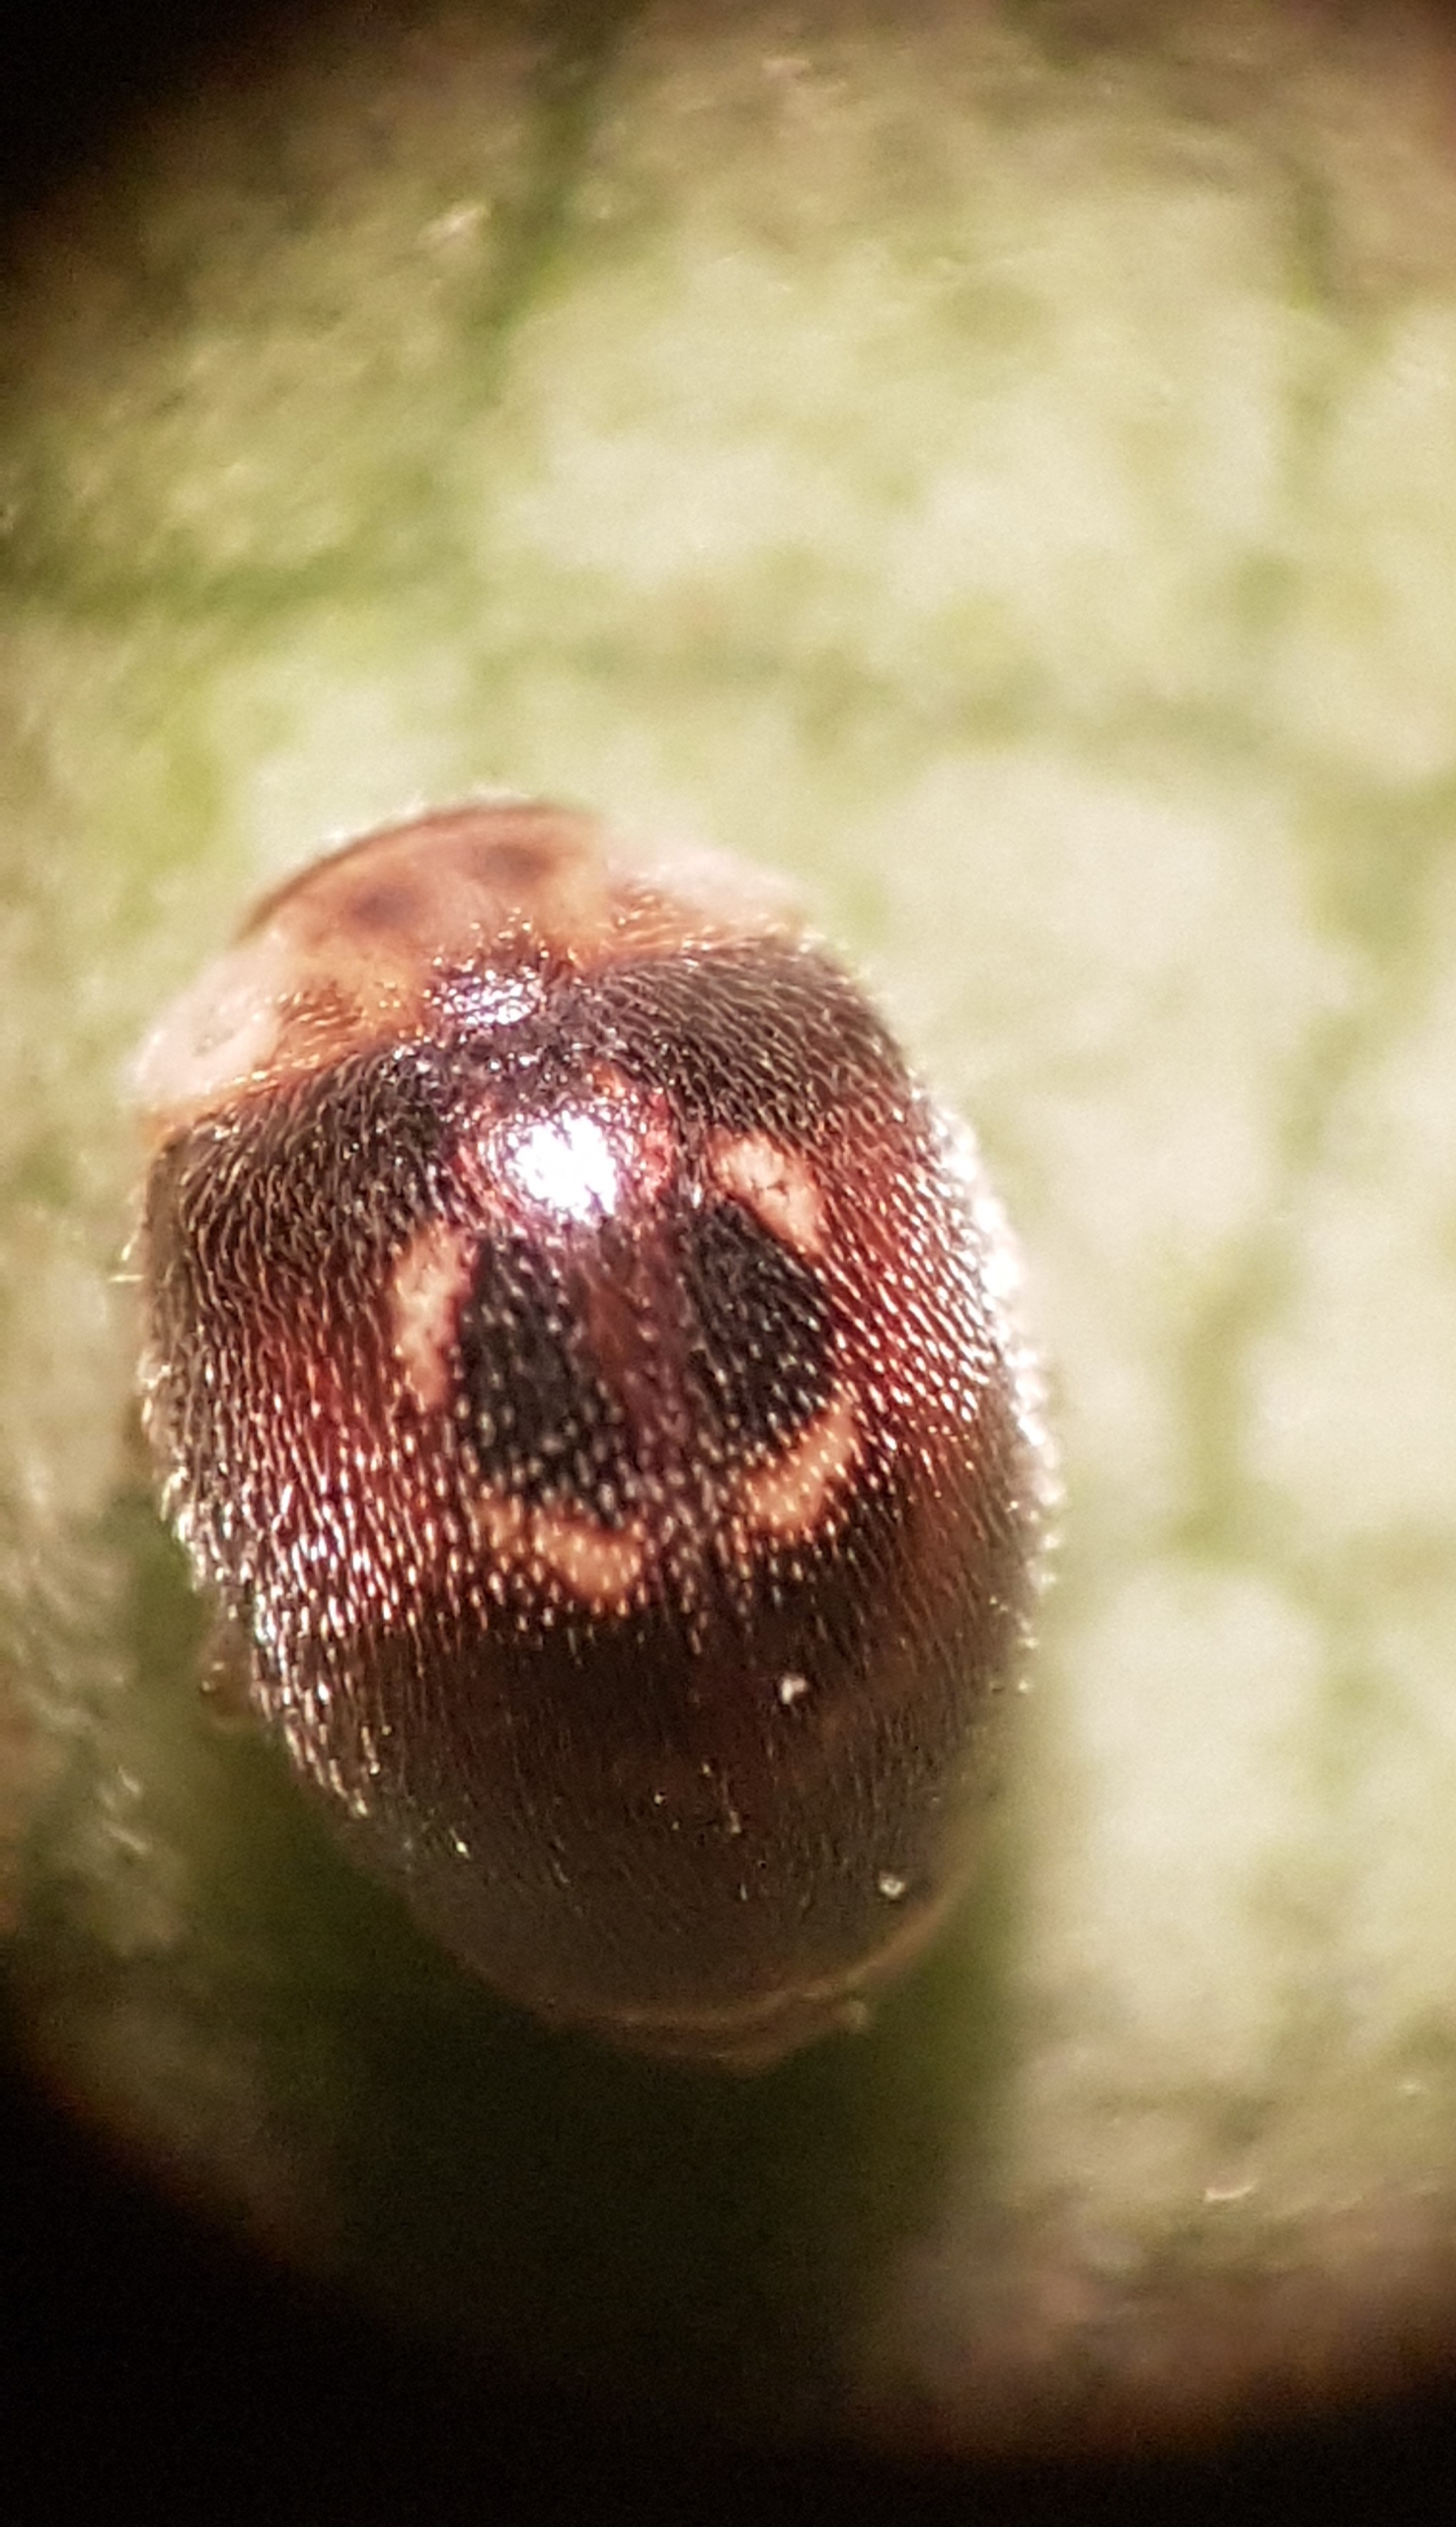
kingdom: Animalia
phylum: Arthropoda
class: Insecta
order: Coleoptera
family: Coccinellidae
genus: Clitostethus
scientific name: Clitostethus arcuatus
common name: Omegamariehøne
